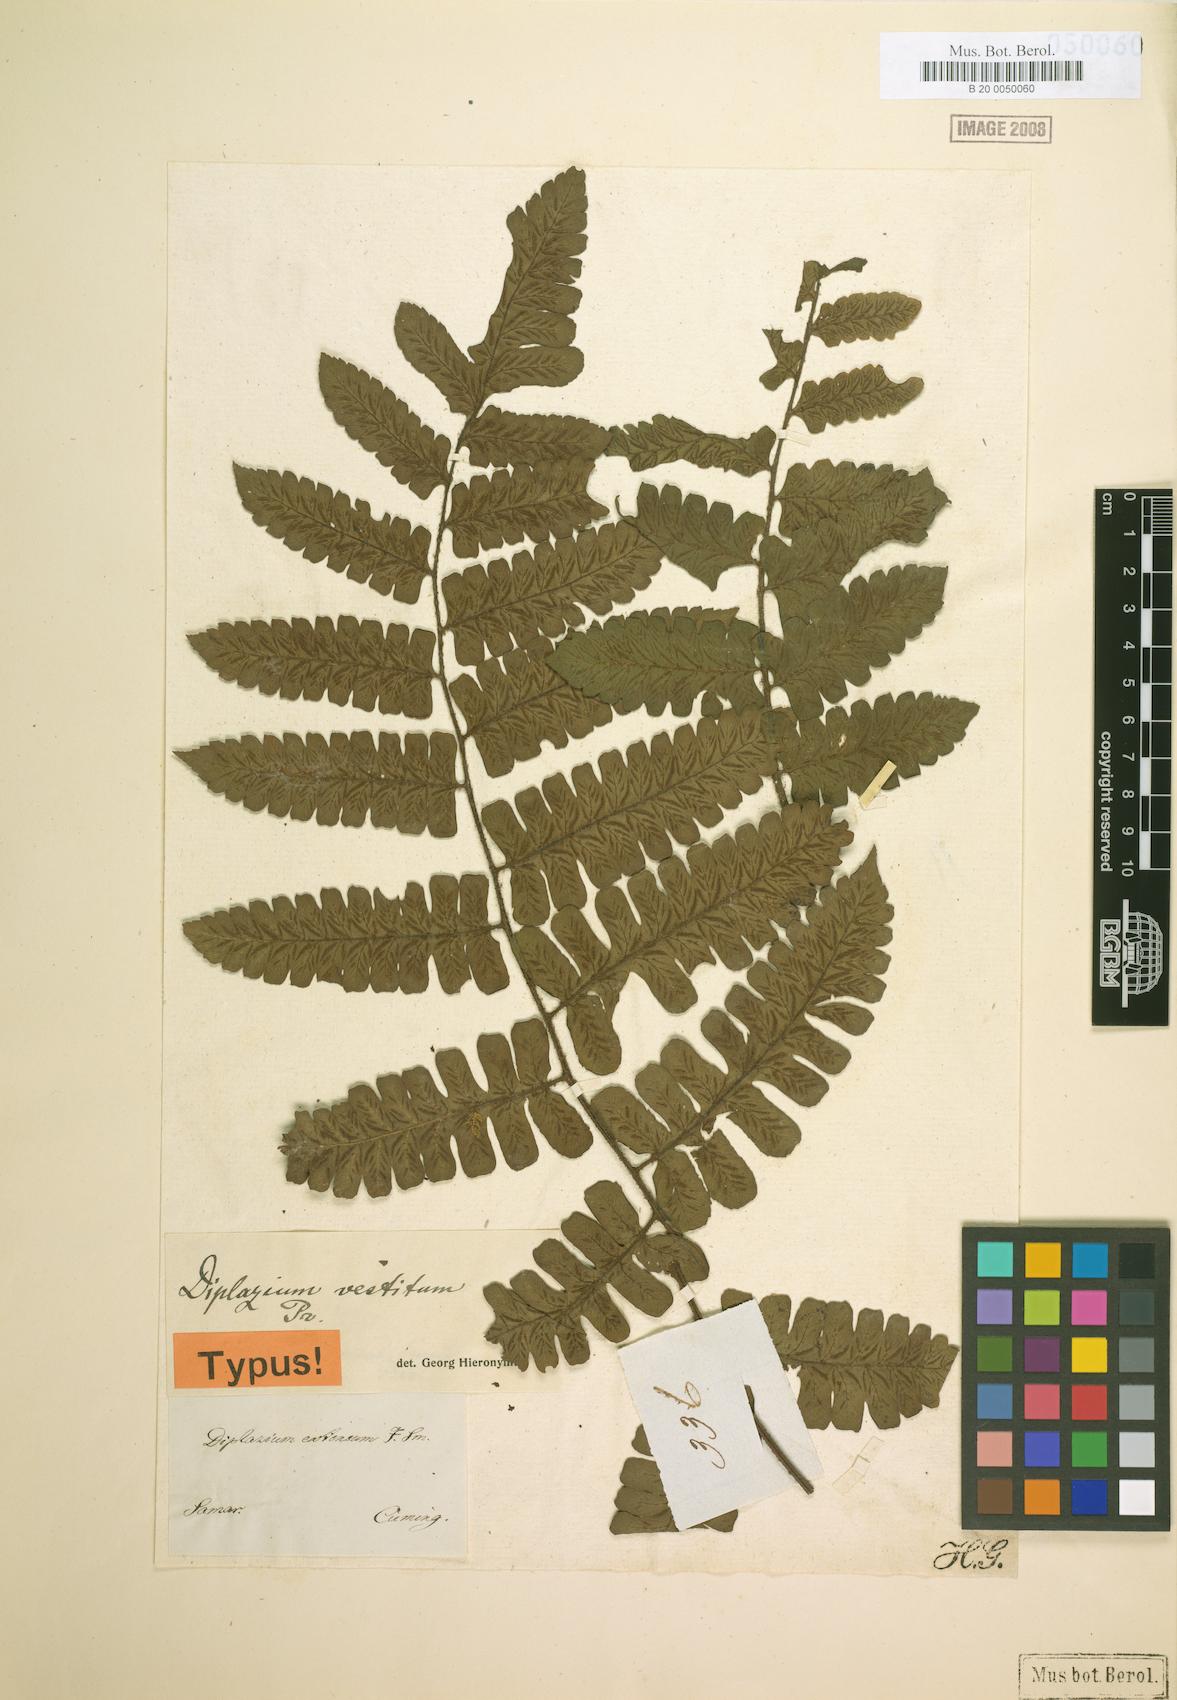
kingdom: Plantae
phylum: Tracheophyta
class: Polypodiopsida
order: Polypodiales
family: Athyriaceae
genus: Diplazium
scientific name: Diplazium vestitum
